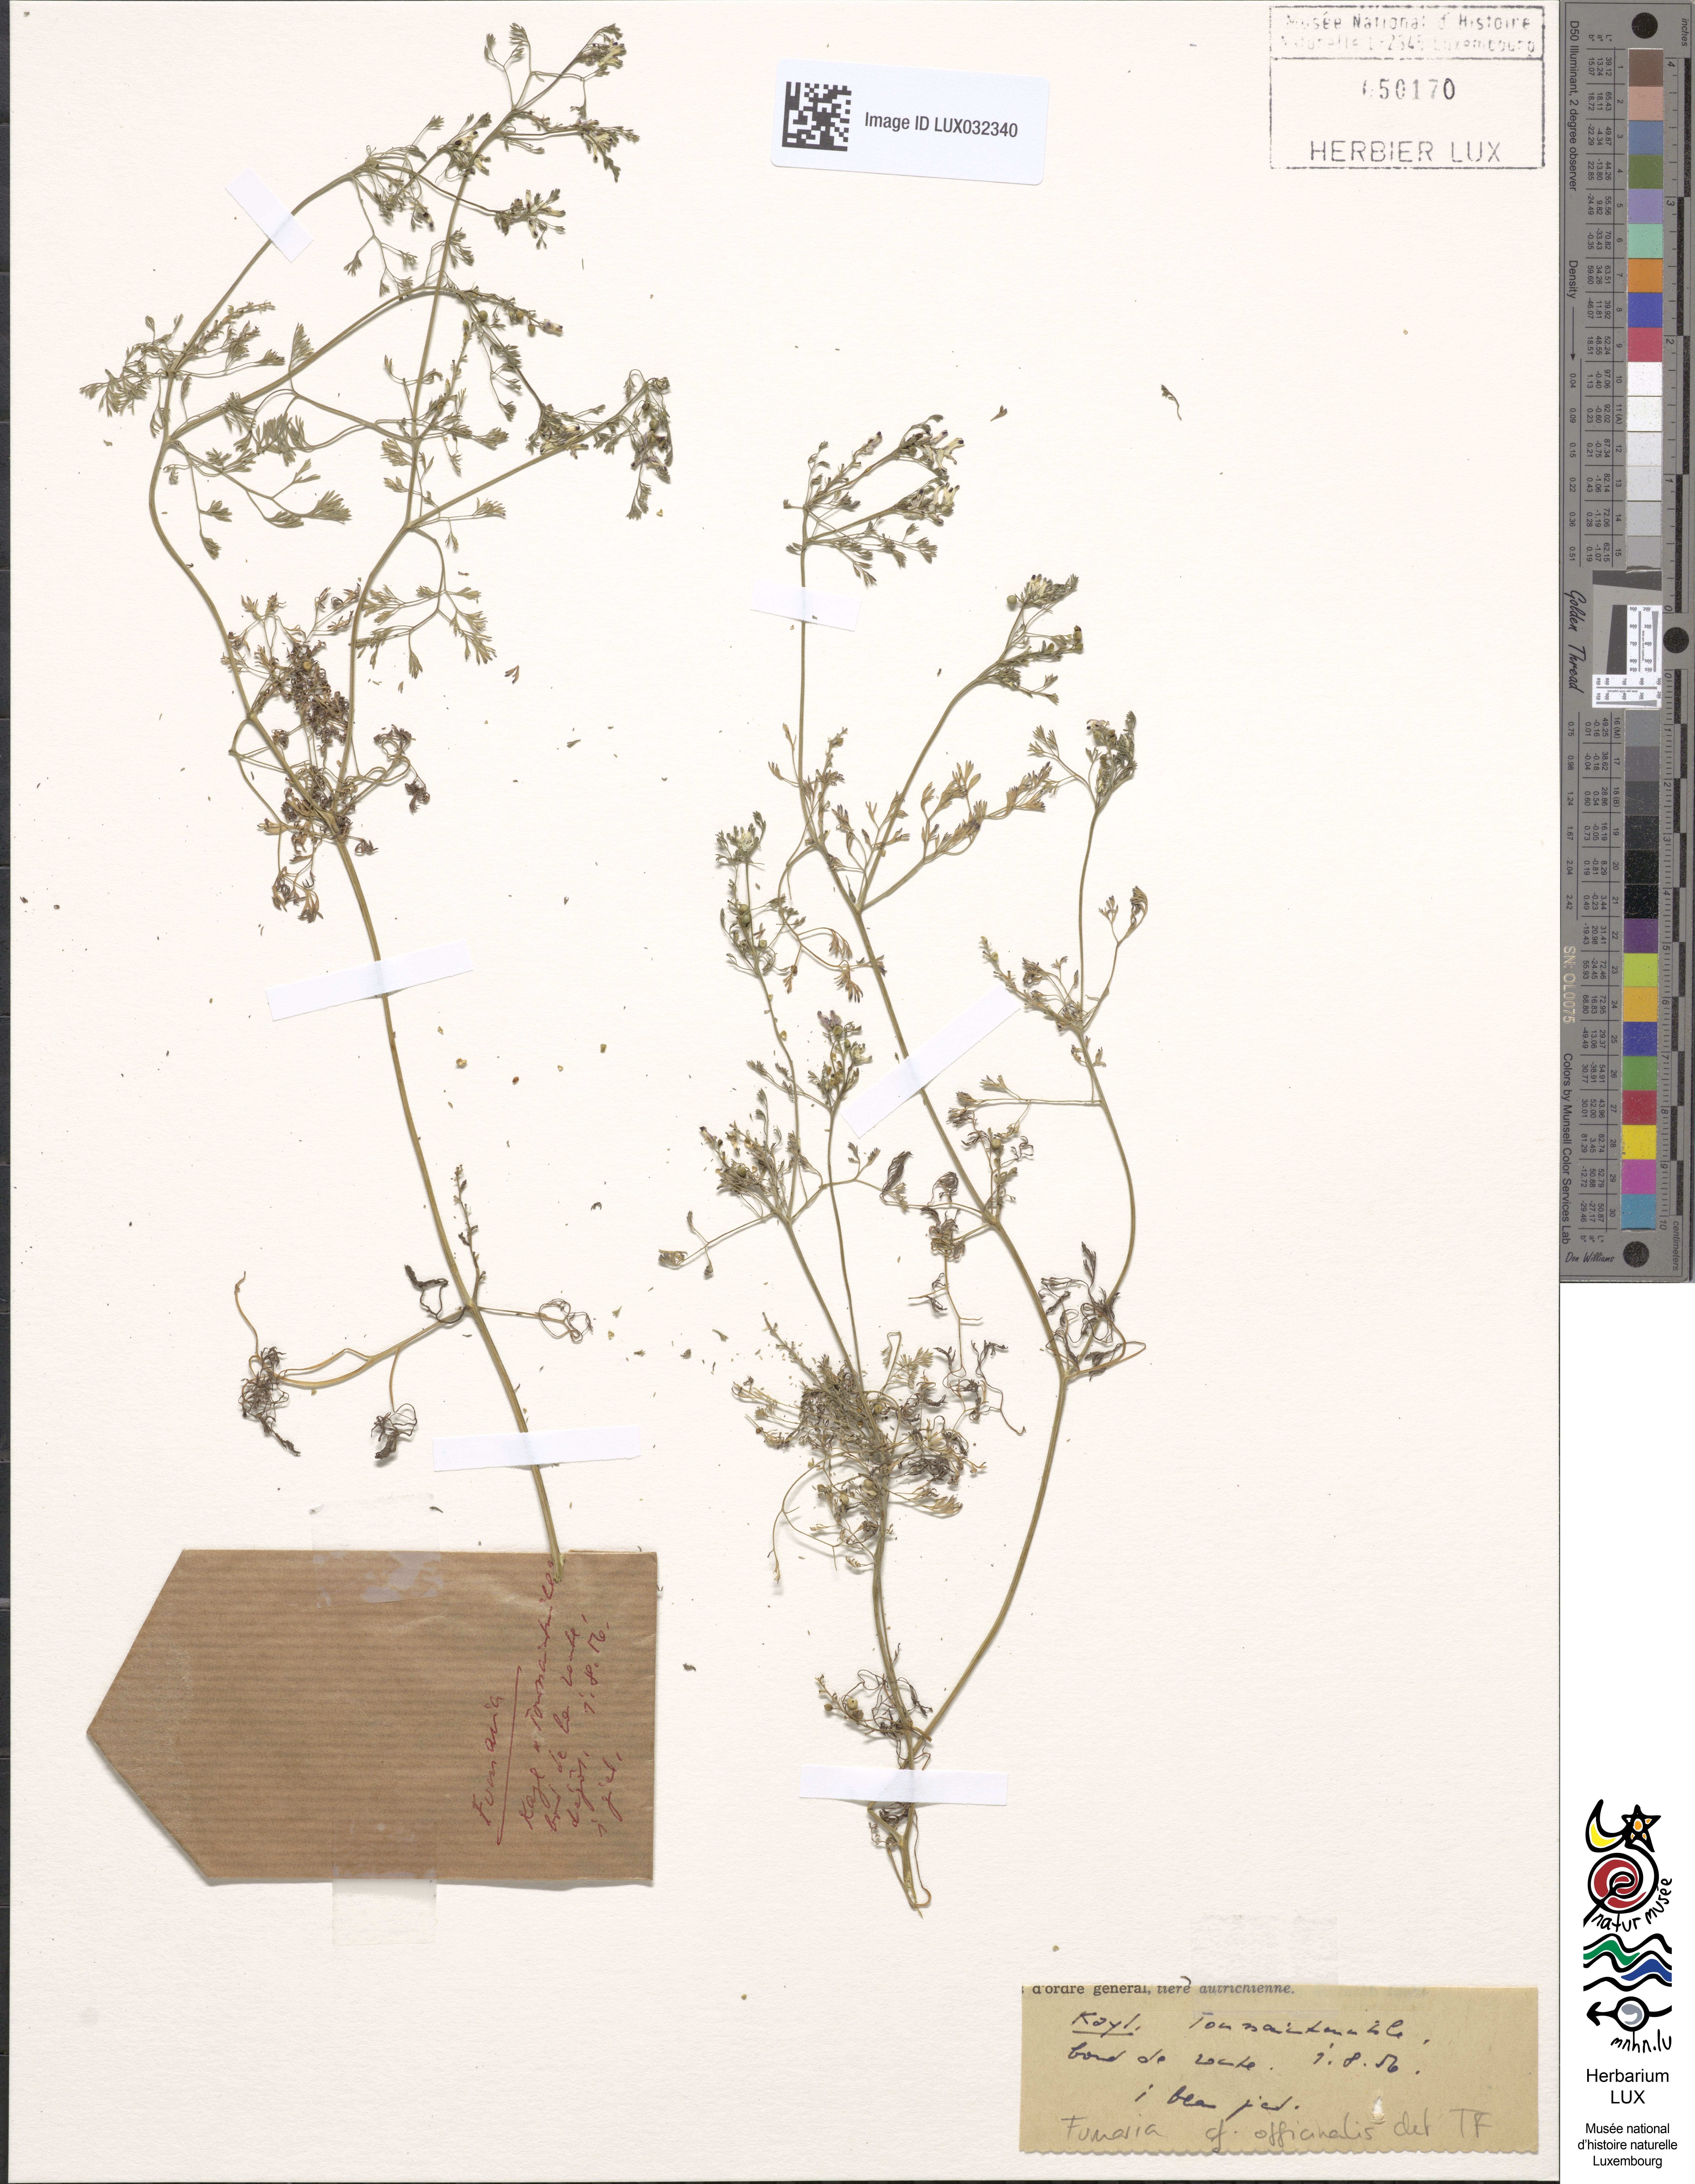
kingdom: Plantae
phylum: Tracheophyta
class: Magnoliopsida
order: Ranunculales
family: Papaveraceae
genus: Fumaria
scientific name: Fumaria officinalis
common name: Common fumitory
